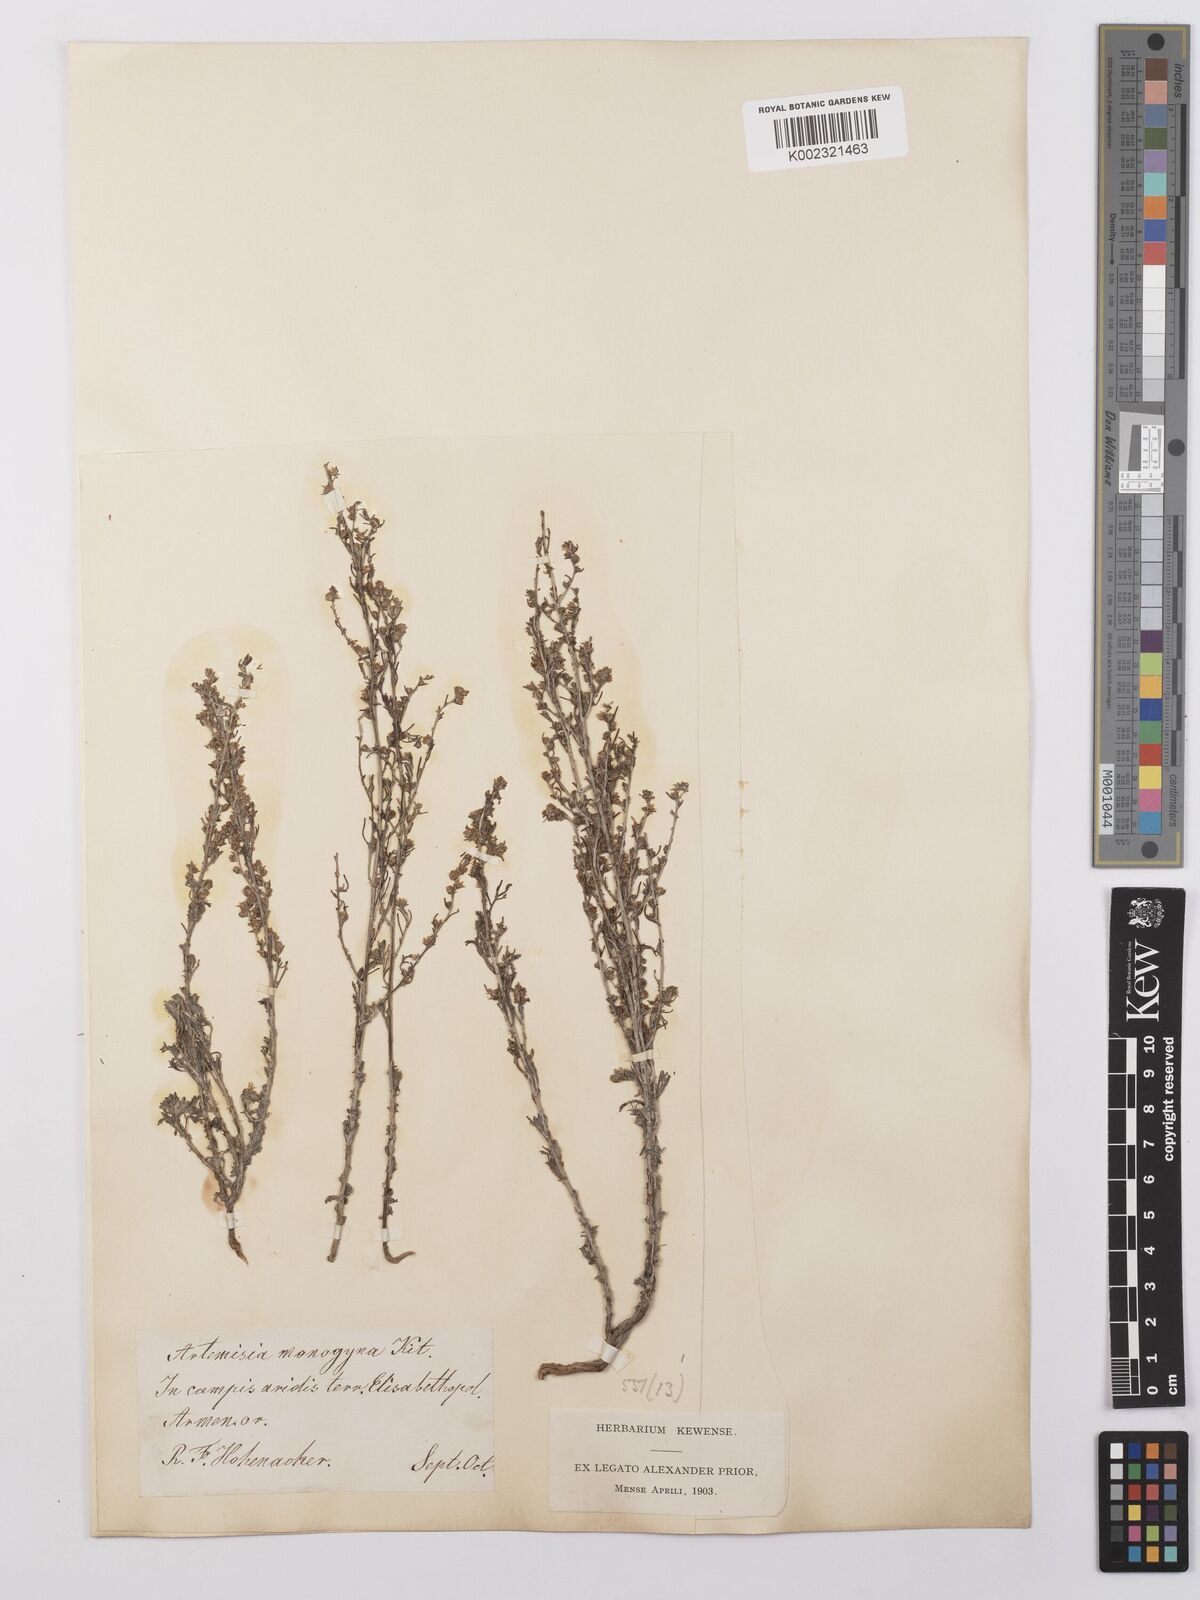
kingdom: Plantae
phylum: Tracheophyta
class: Magnoliopsida
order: Asterales
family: Asteraceae
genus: Artemisia
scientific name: Artemisia fragrans
